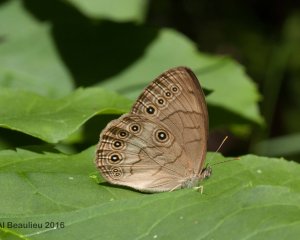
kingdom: Animalia
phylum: Arthropoda
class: Insecta
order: Lepidoptera
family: Nymphalidae
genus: Lethe
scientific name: Lethe eurydice
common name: Eyed Brown
